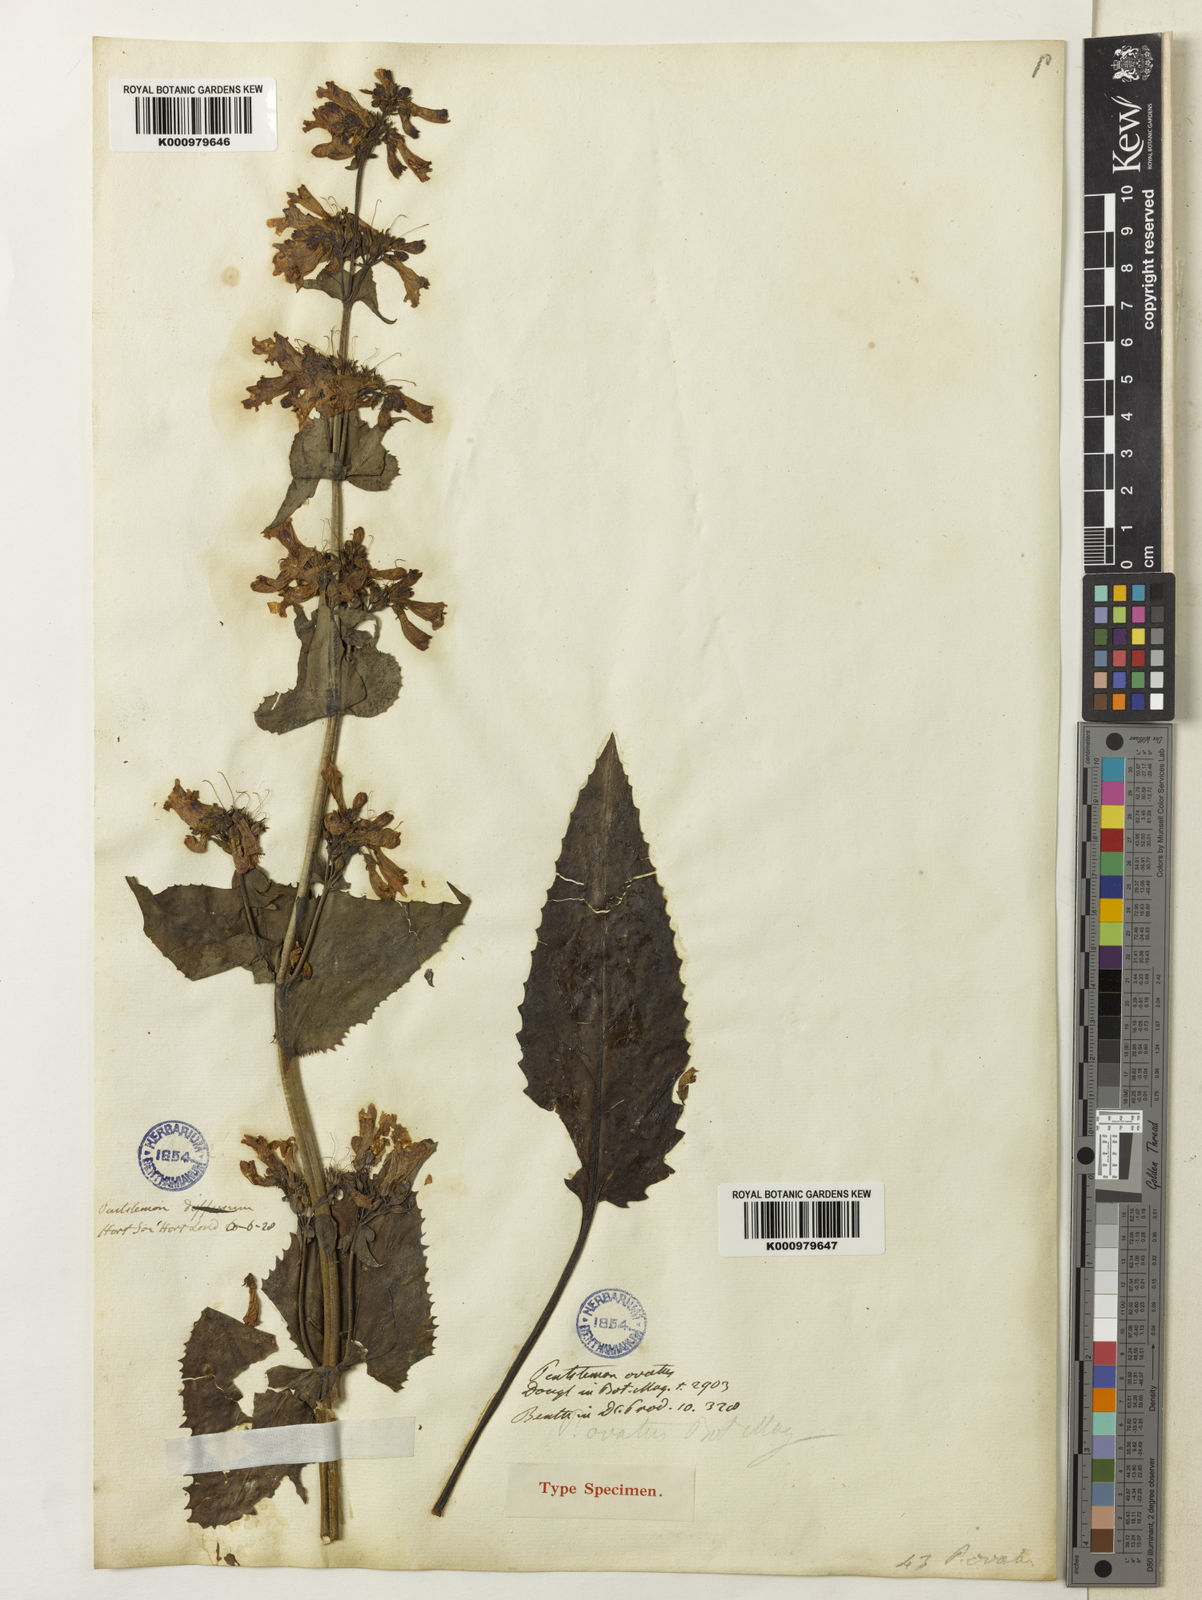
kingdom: Plantae
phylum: Tracheophyta
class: Magnoliopsida
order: Lamiales
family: Plantaginaceae
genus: Penstemon
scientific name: Penstemon ovatus
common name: Broad-leaved beardtongue
